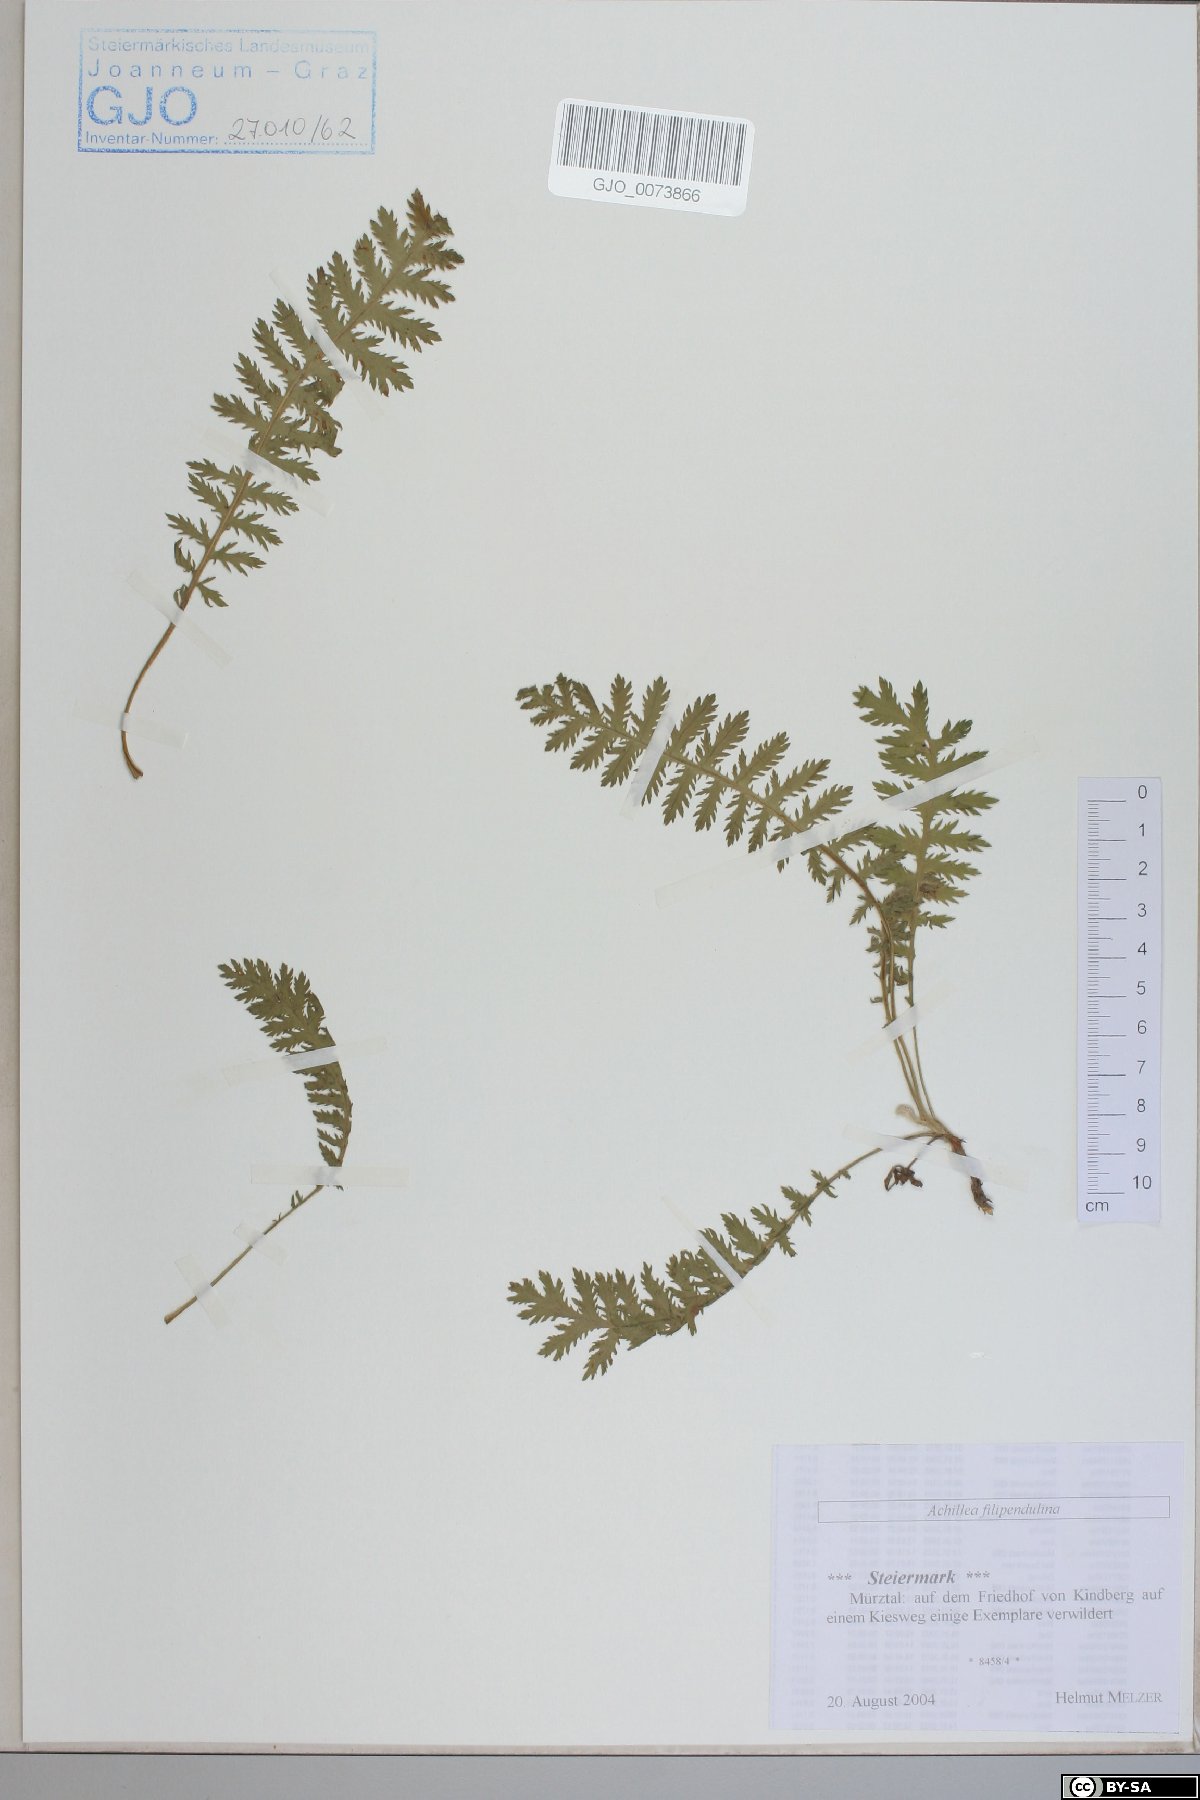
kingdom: Plantae
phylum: Tracheophyta
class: Magnoliopsida
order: Asterales
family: Asteraceae
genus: Achillea
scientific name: Achillea filipendulina
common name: Fernleaf yarrow
